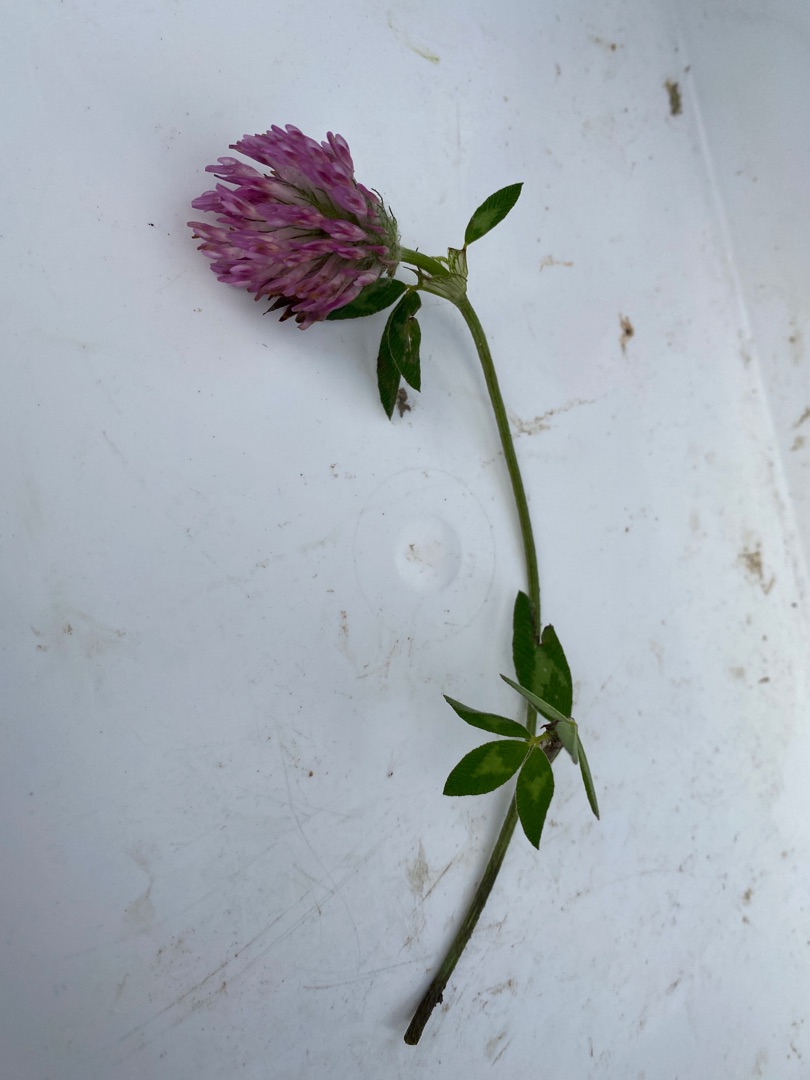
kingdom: Plantae
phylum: Tracheophyta
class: Magnoliopsida
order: Fabales
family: Fabaceae
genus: Trifolium
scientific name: Trifolium pratense
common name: Rød-kløver
